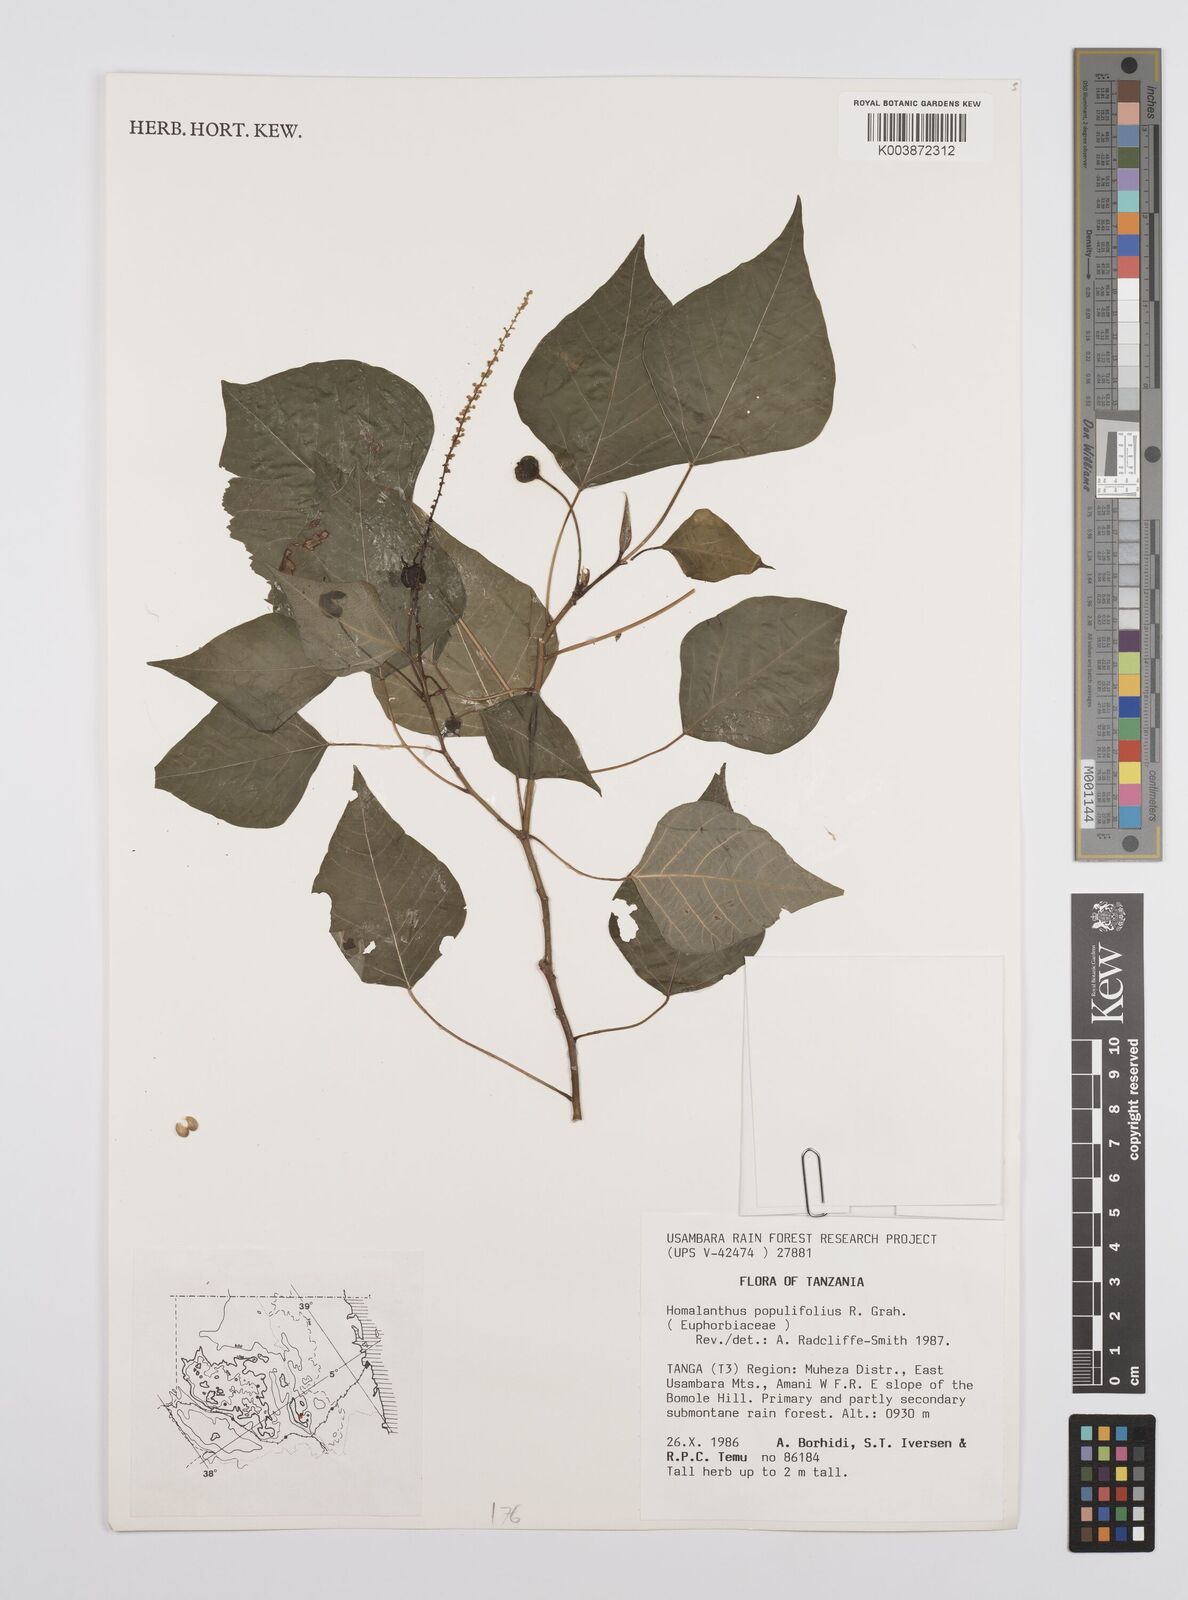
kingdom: Plantae
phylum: Tracheophyta
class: Magnoliopsida
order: Malpighiales
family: Euphorbiaceae
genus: Homalanthus
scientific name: Homalanthus populifolius
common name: Queensland poplar
